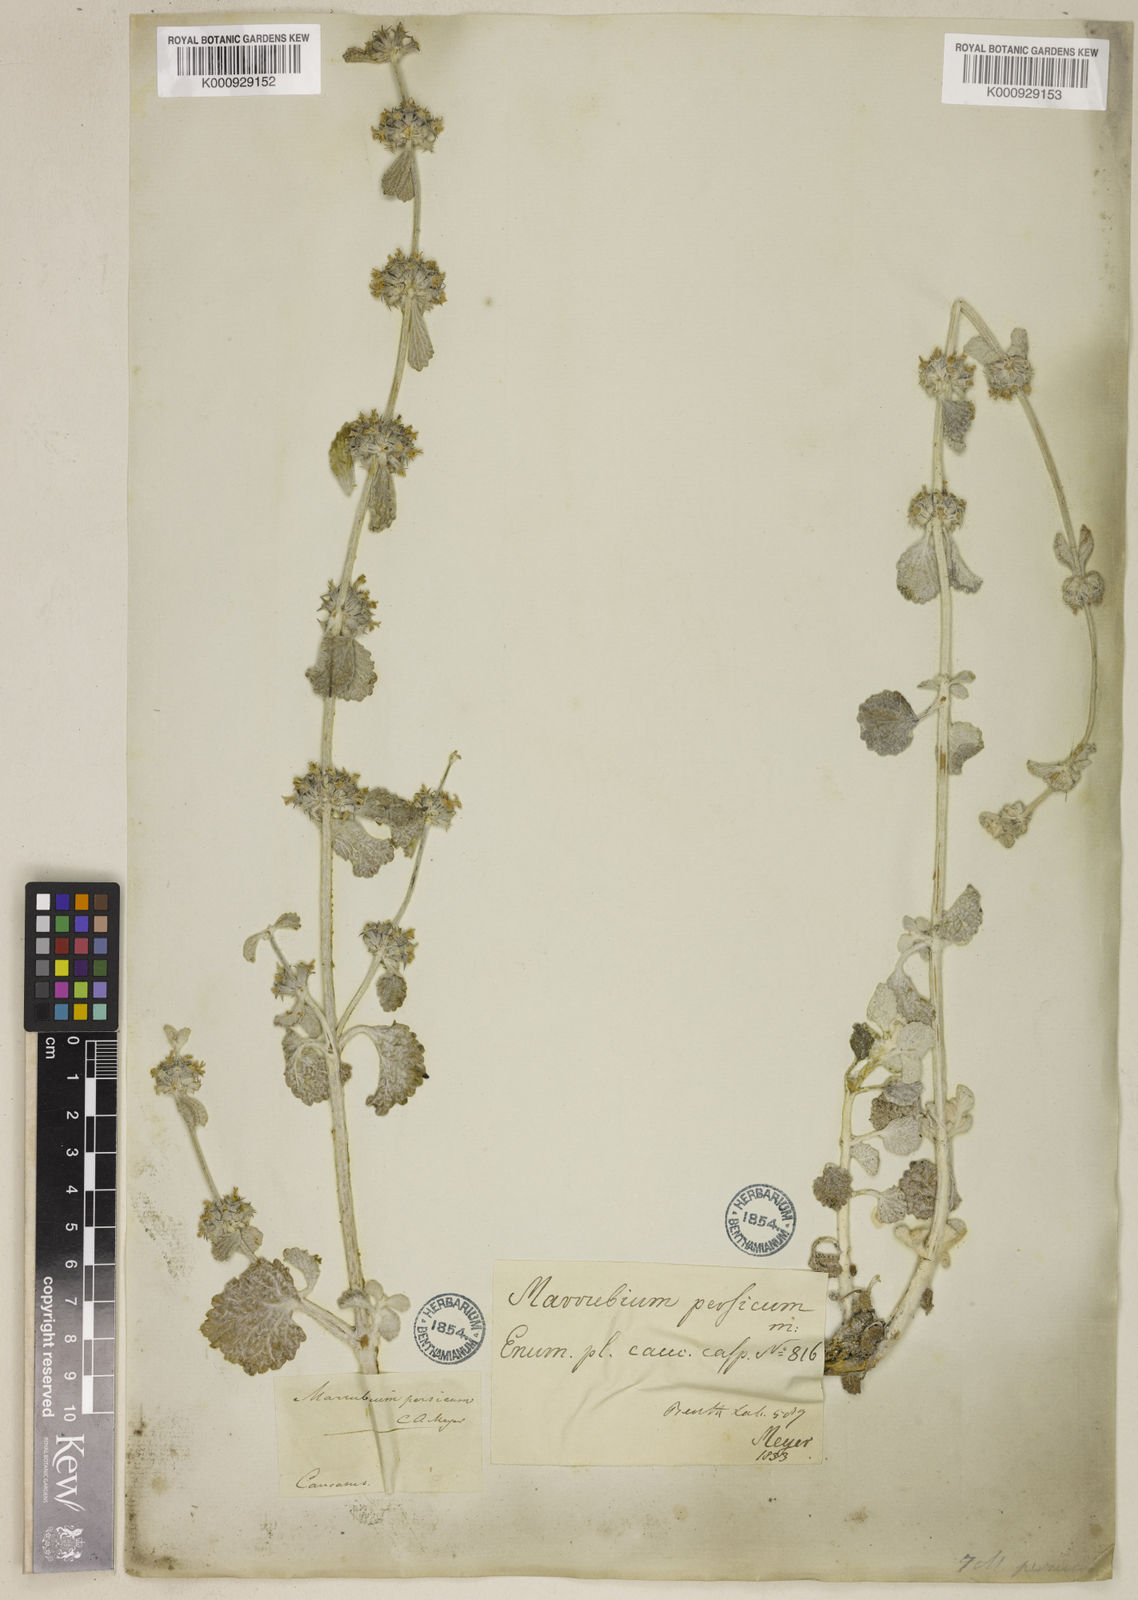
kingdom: Plantae
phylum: Tracheophyta
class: Magnoliopsida
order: Lamiales
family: Lamiaceae
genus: Marrubium
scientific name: Marrubium persicum
